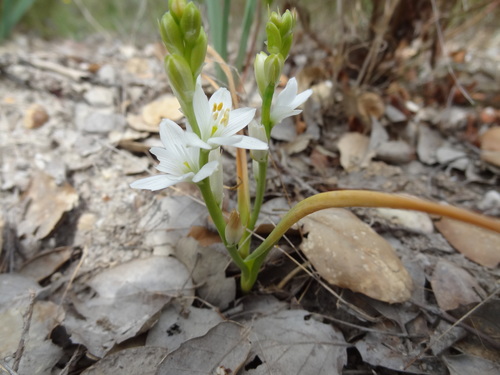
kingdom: Plantae
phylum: Tracheophyta
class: Liliopsida
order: Asparagales
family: Asparagaceae
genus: Ornithogalum
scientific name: Ornithogalum broteroi
